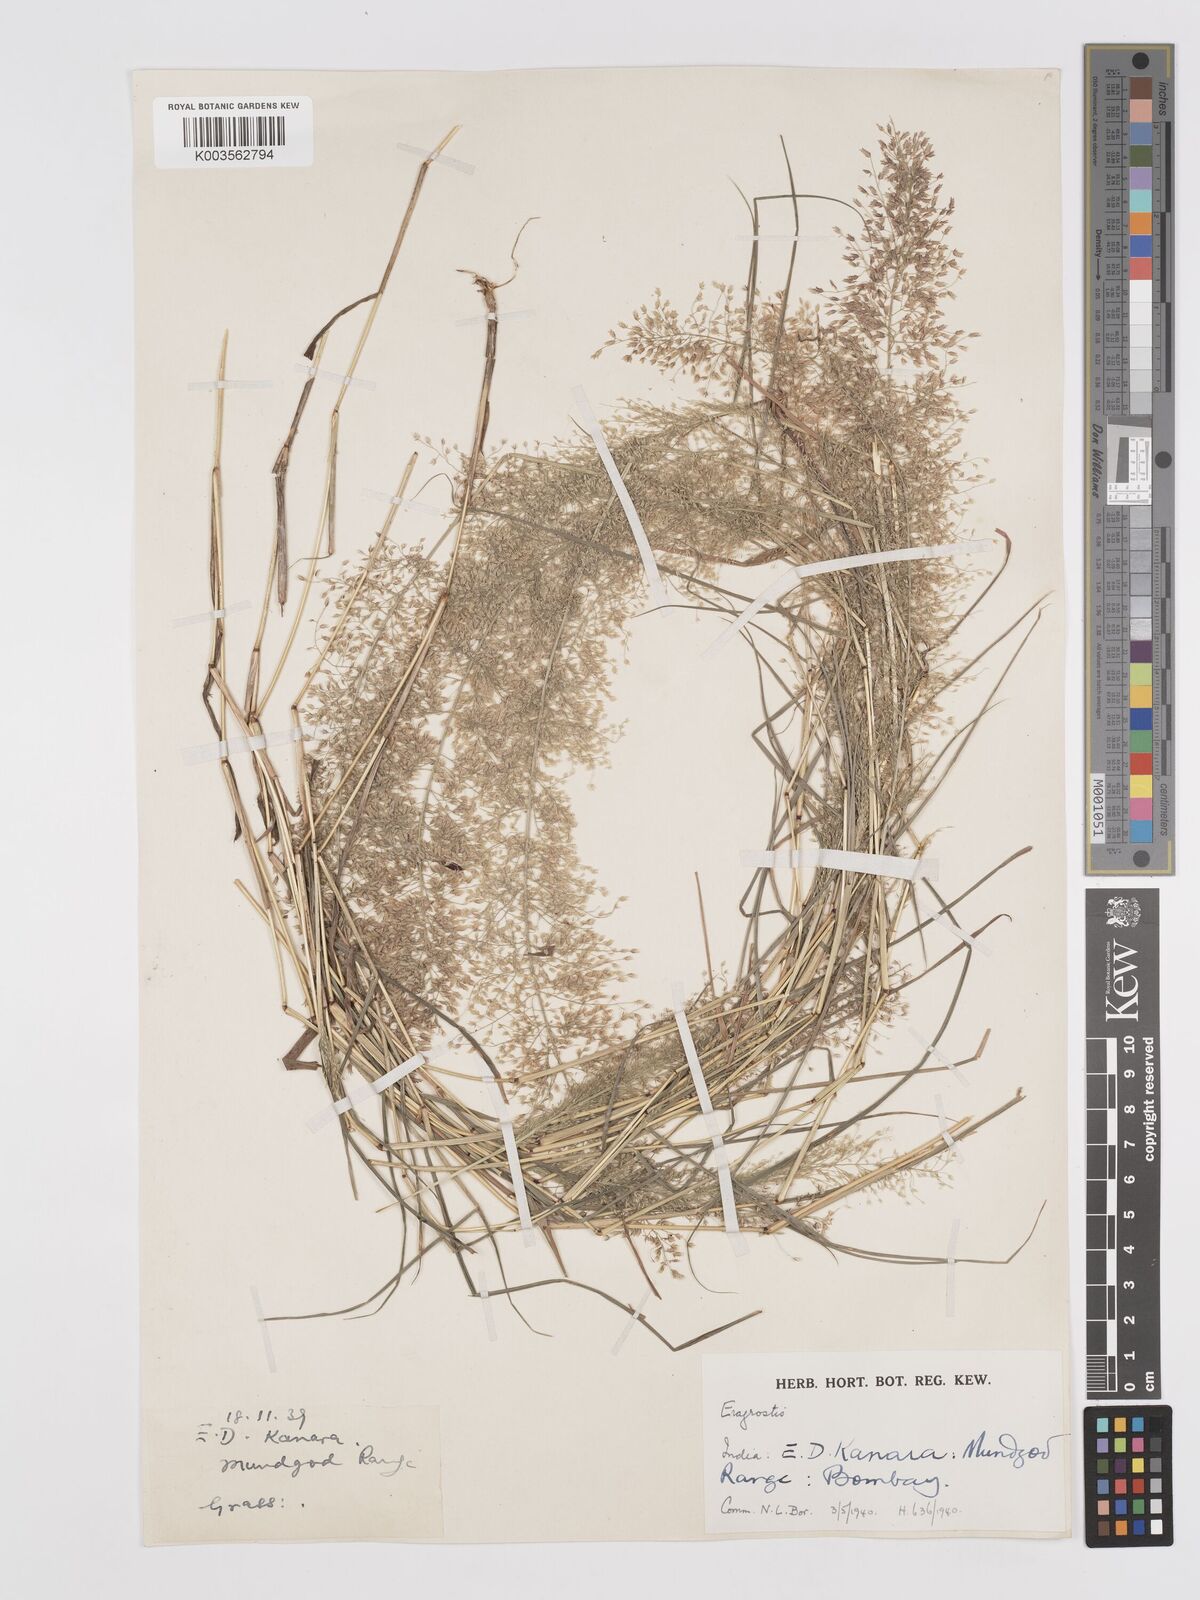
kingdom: Plantae
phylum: Tracheophyta
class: Liliopsida
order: Poales
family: Poaceae
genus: Eragrostis
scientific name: Eragrostis viscosa
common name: Sticky love grass
